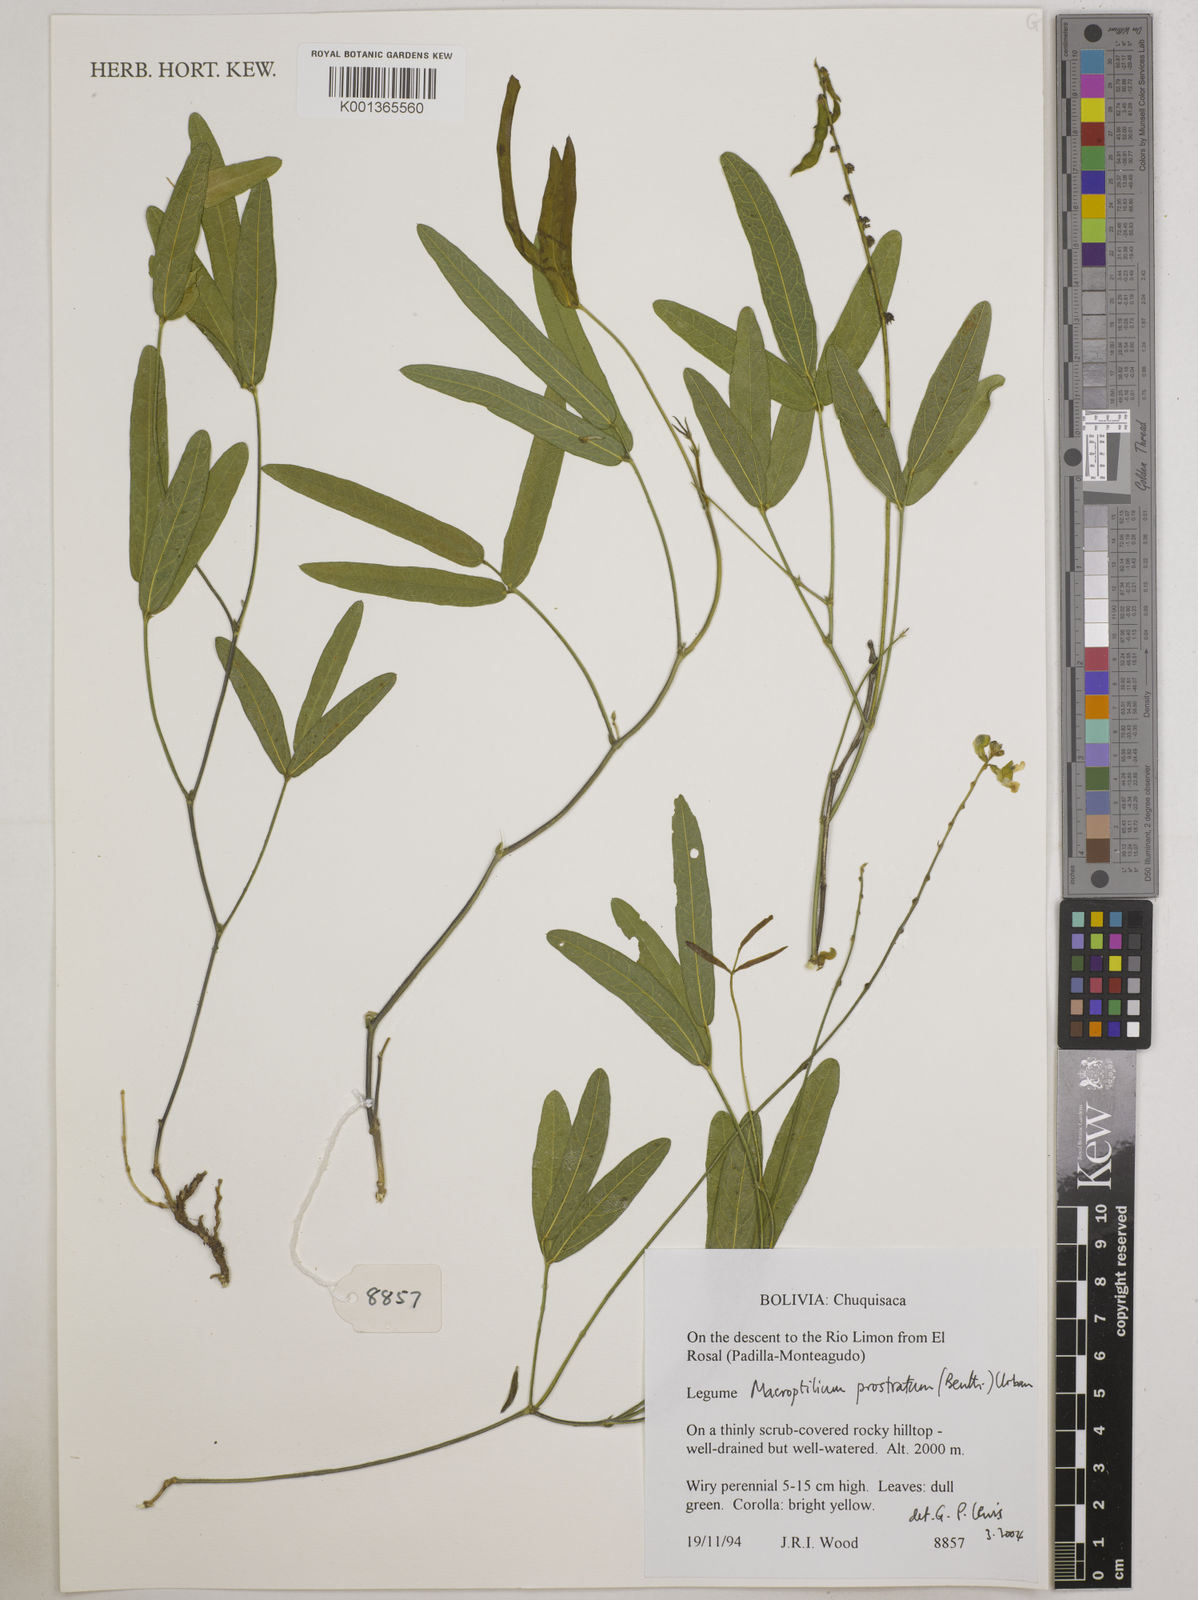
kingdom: Plantae
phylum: Tracheophyta
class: Magnoliopsida
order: Fabales
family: Fabaceae
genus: Macroptilium
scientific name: Macroptilium prostratum
